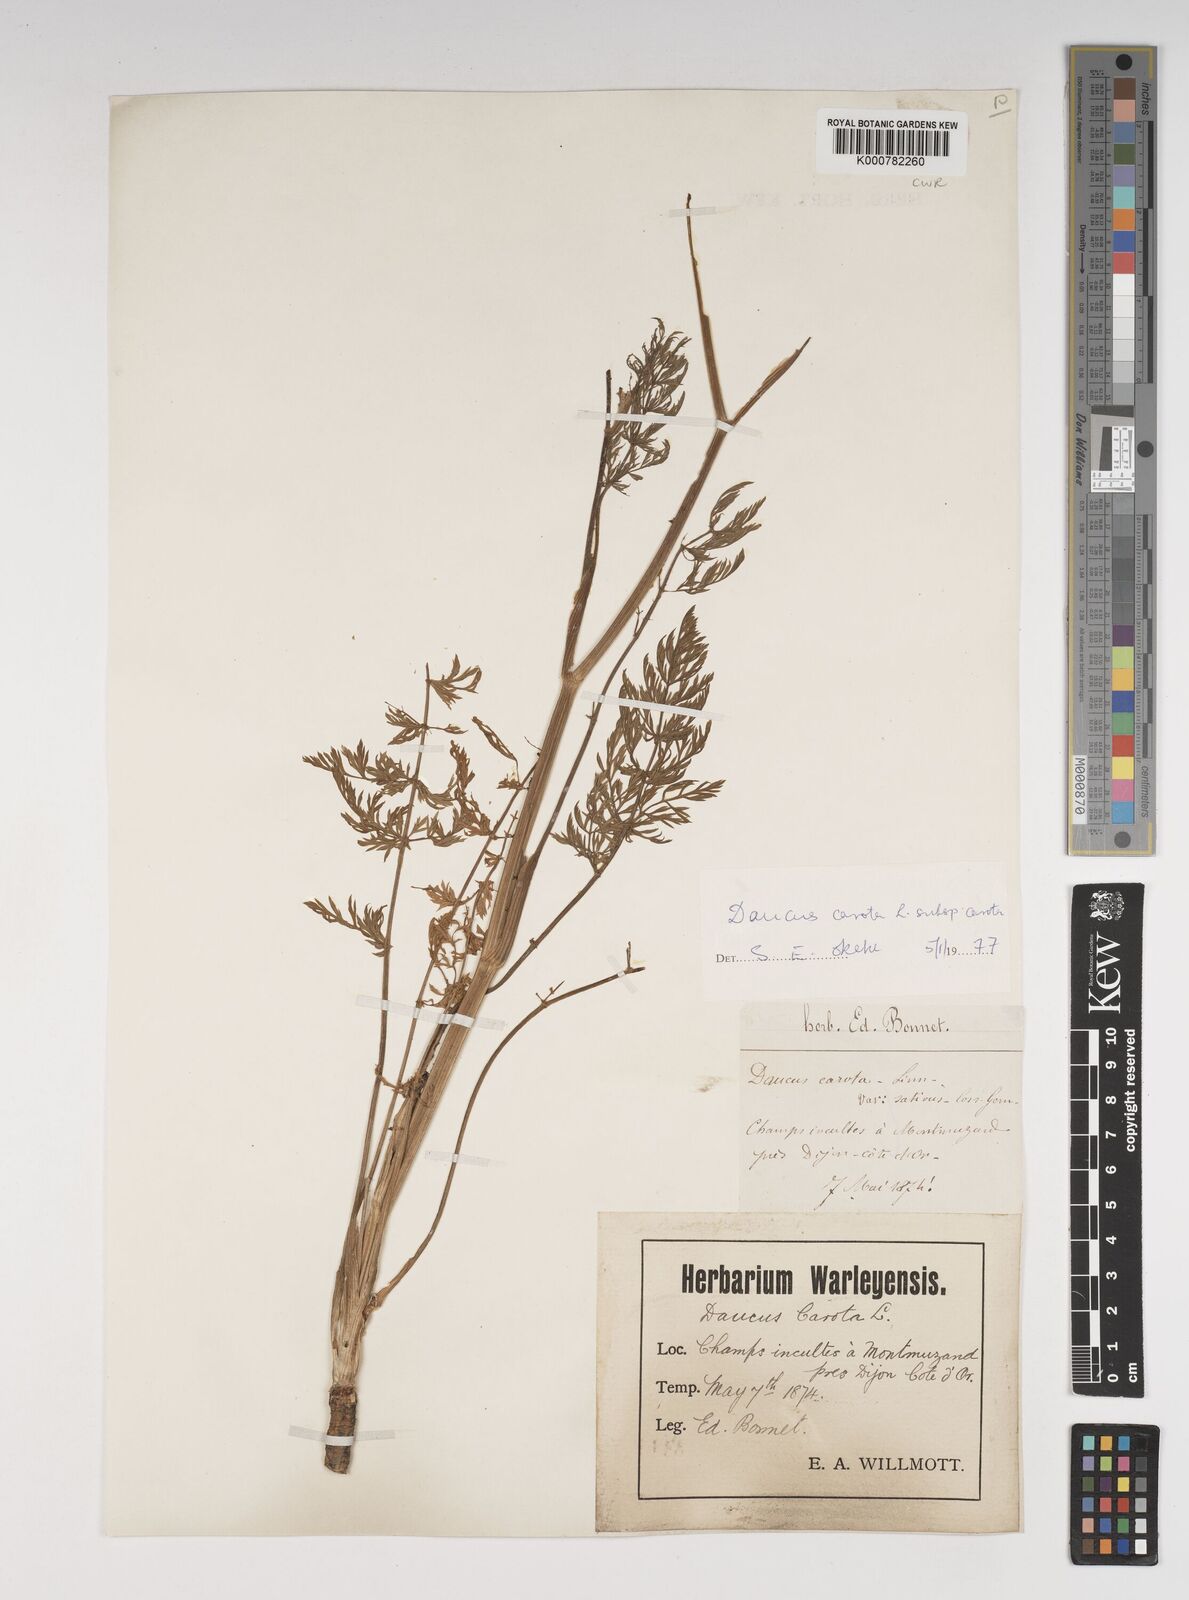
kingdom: Plantae
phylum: Tracheophyta
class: Magnoliopsida
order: Apiales
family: Apiaceae
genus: Daucus
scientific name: Daucus carota
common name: Wild carrot
